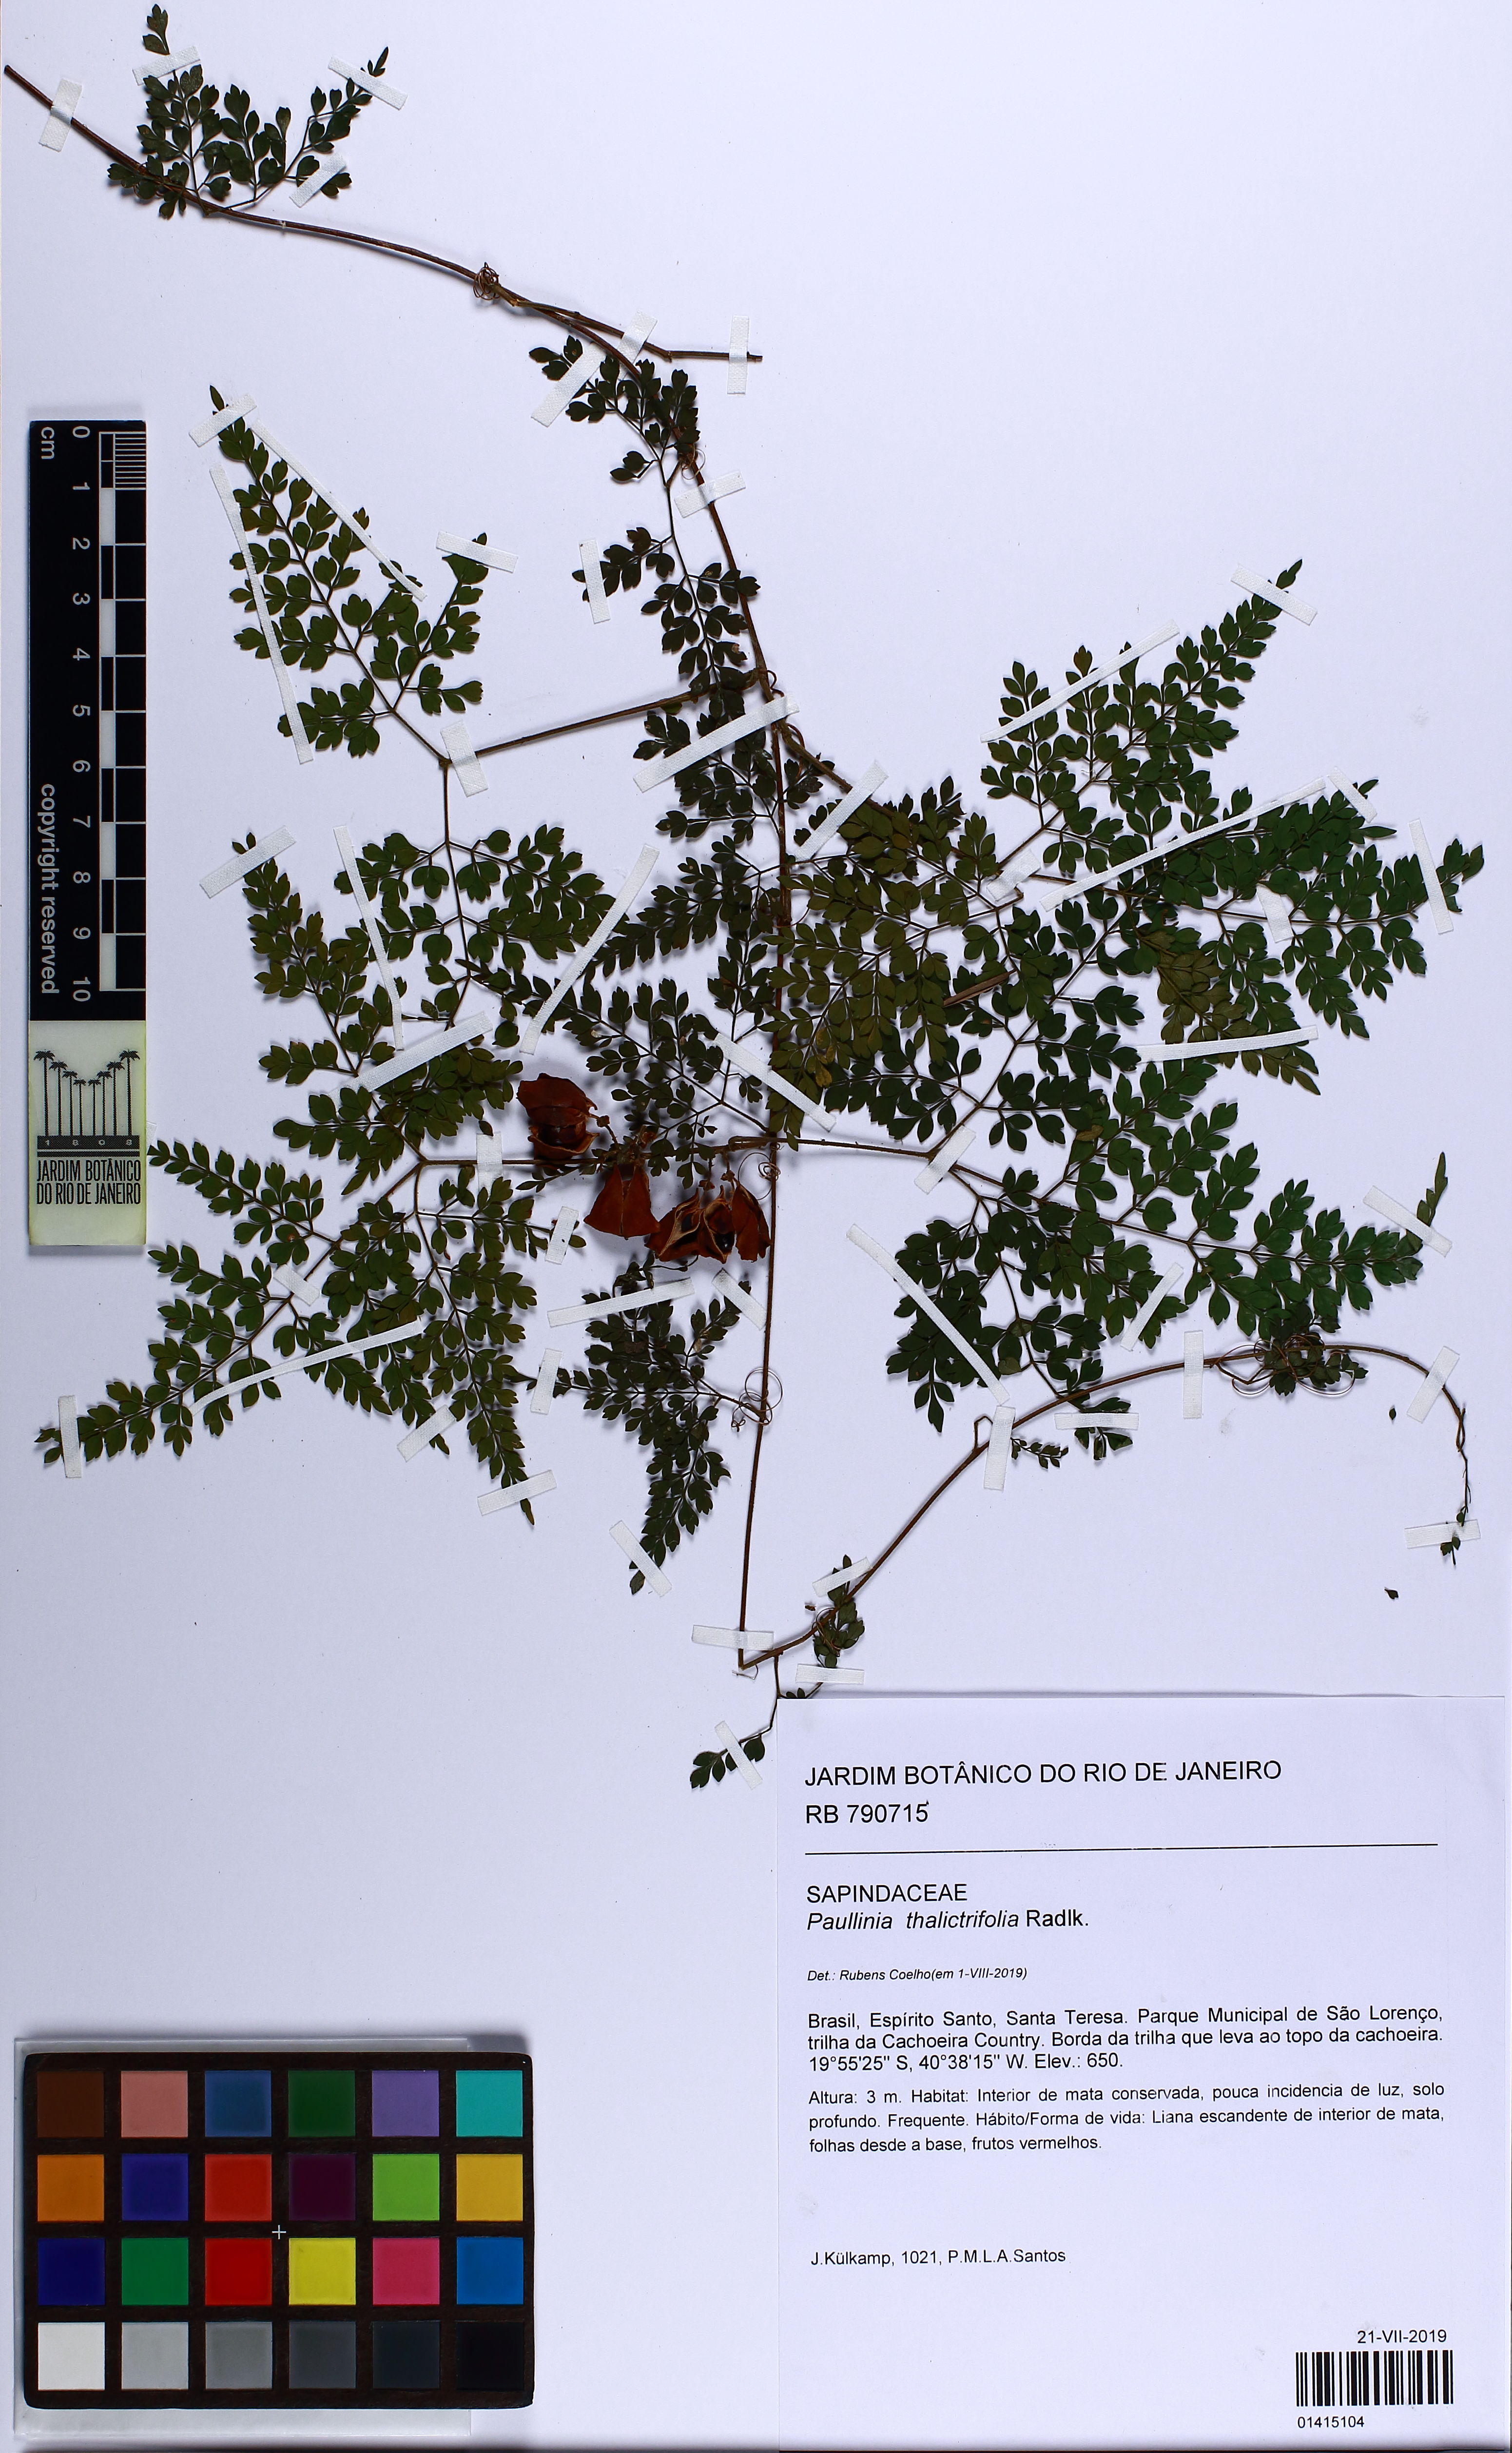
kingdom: Plantae
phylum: Tracheophyta
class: Magnoliopsida
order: Sapindales
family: Sapindaceae
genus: Paullinia
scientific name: Paullinia bipinnata
